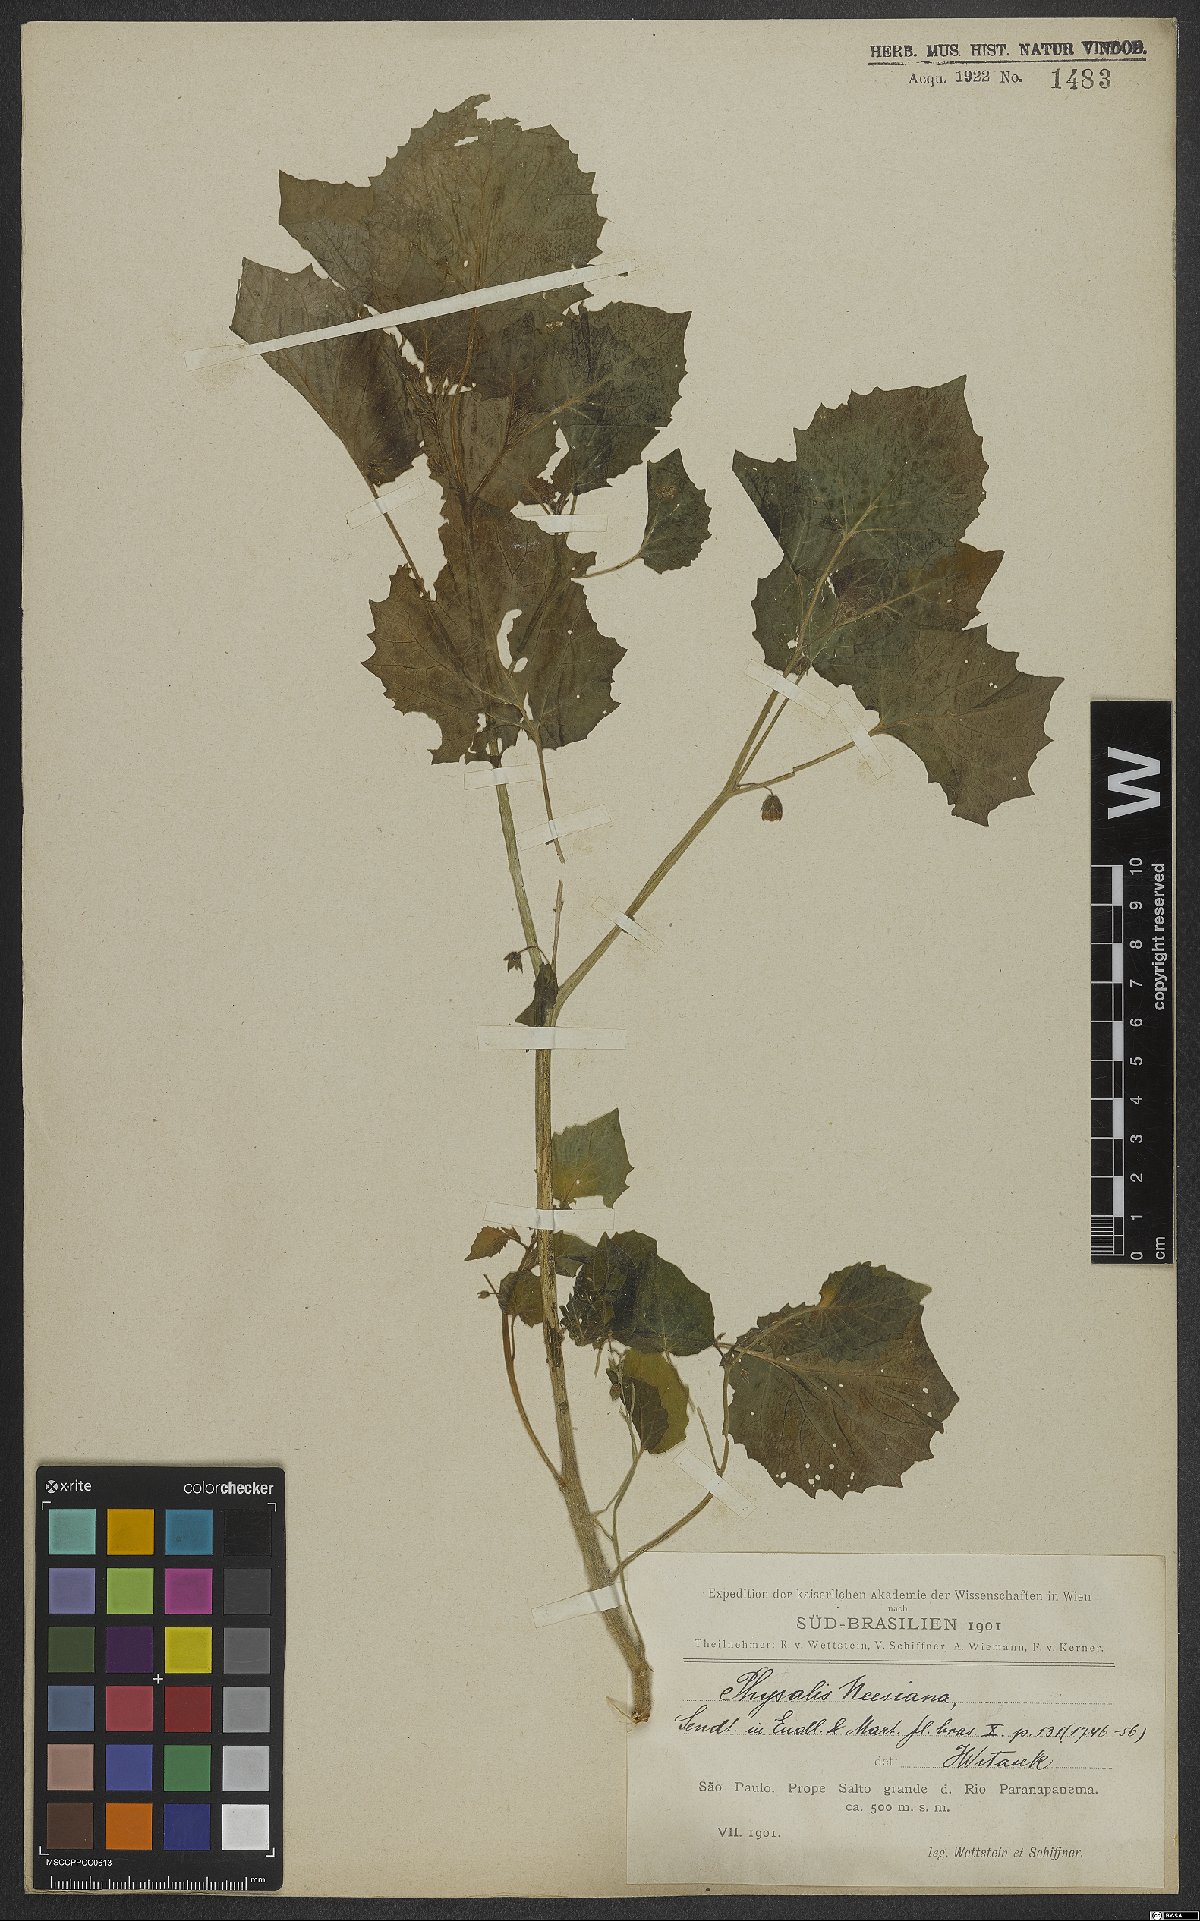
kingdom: Plantae
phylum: Tracheophyta
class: Magnoliopsida
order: Solanales
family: Solanaceae
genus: Physalis
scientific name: Physalis pubescens
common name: Downy ground-cherry
